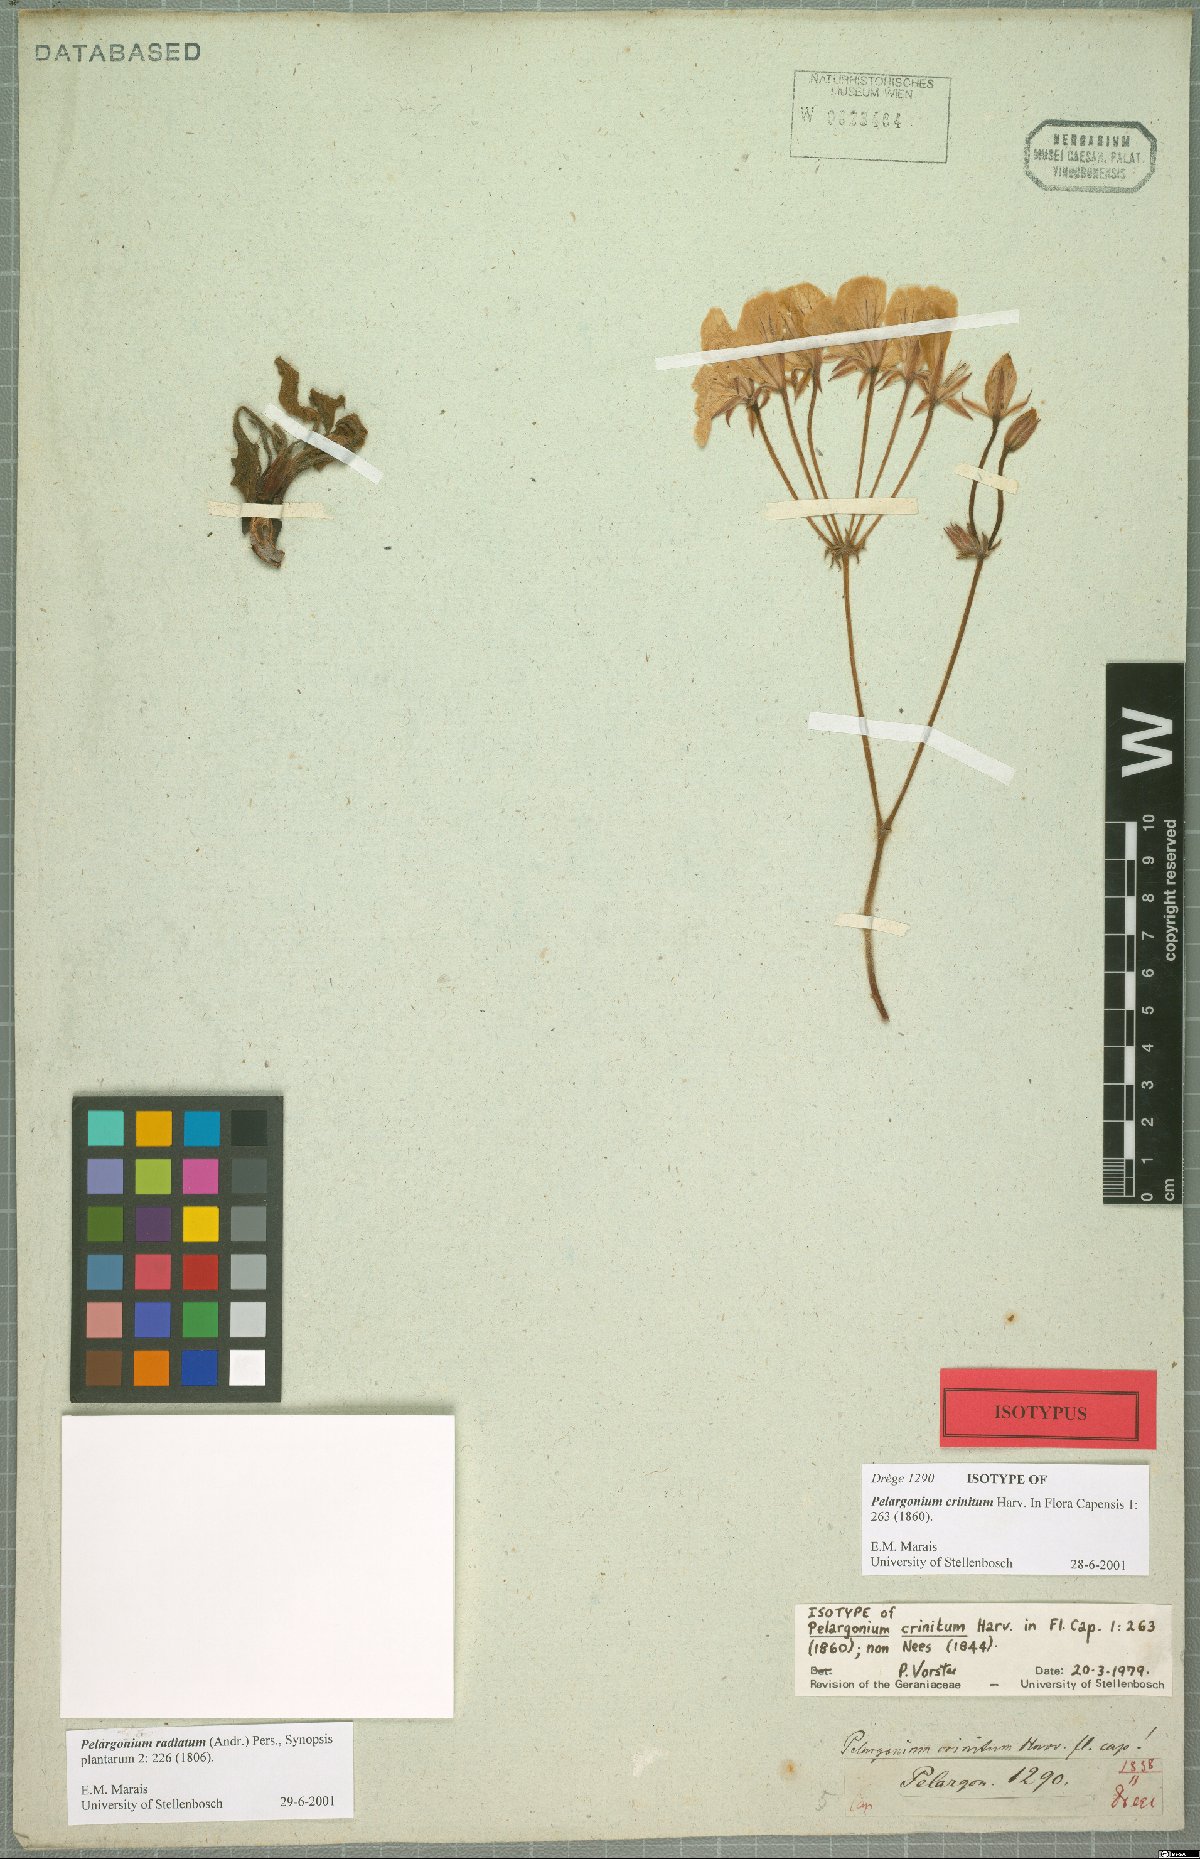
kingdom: Plantae
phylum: Tracheophyta
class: Magnoliopsida
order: Geraniales
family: Geraniaceae
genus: Pelargonium
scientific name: Pelargonium radiatum
